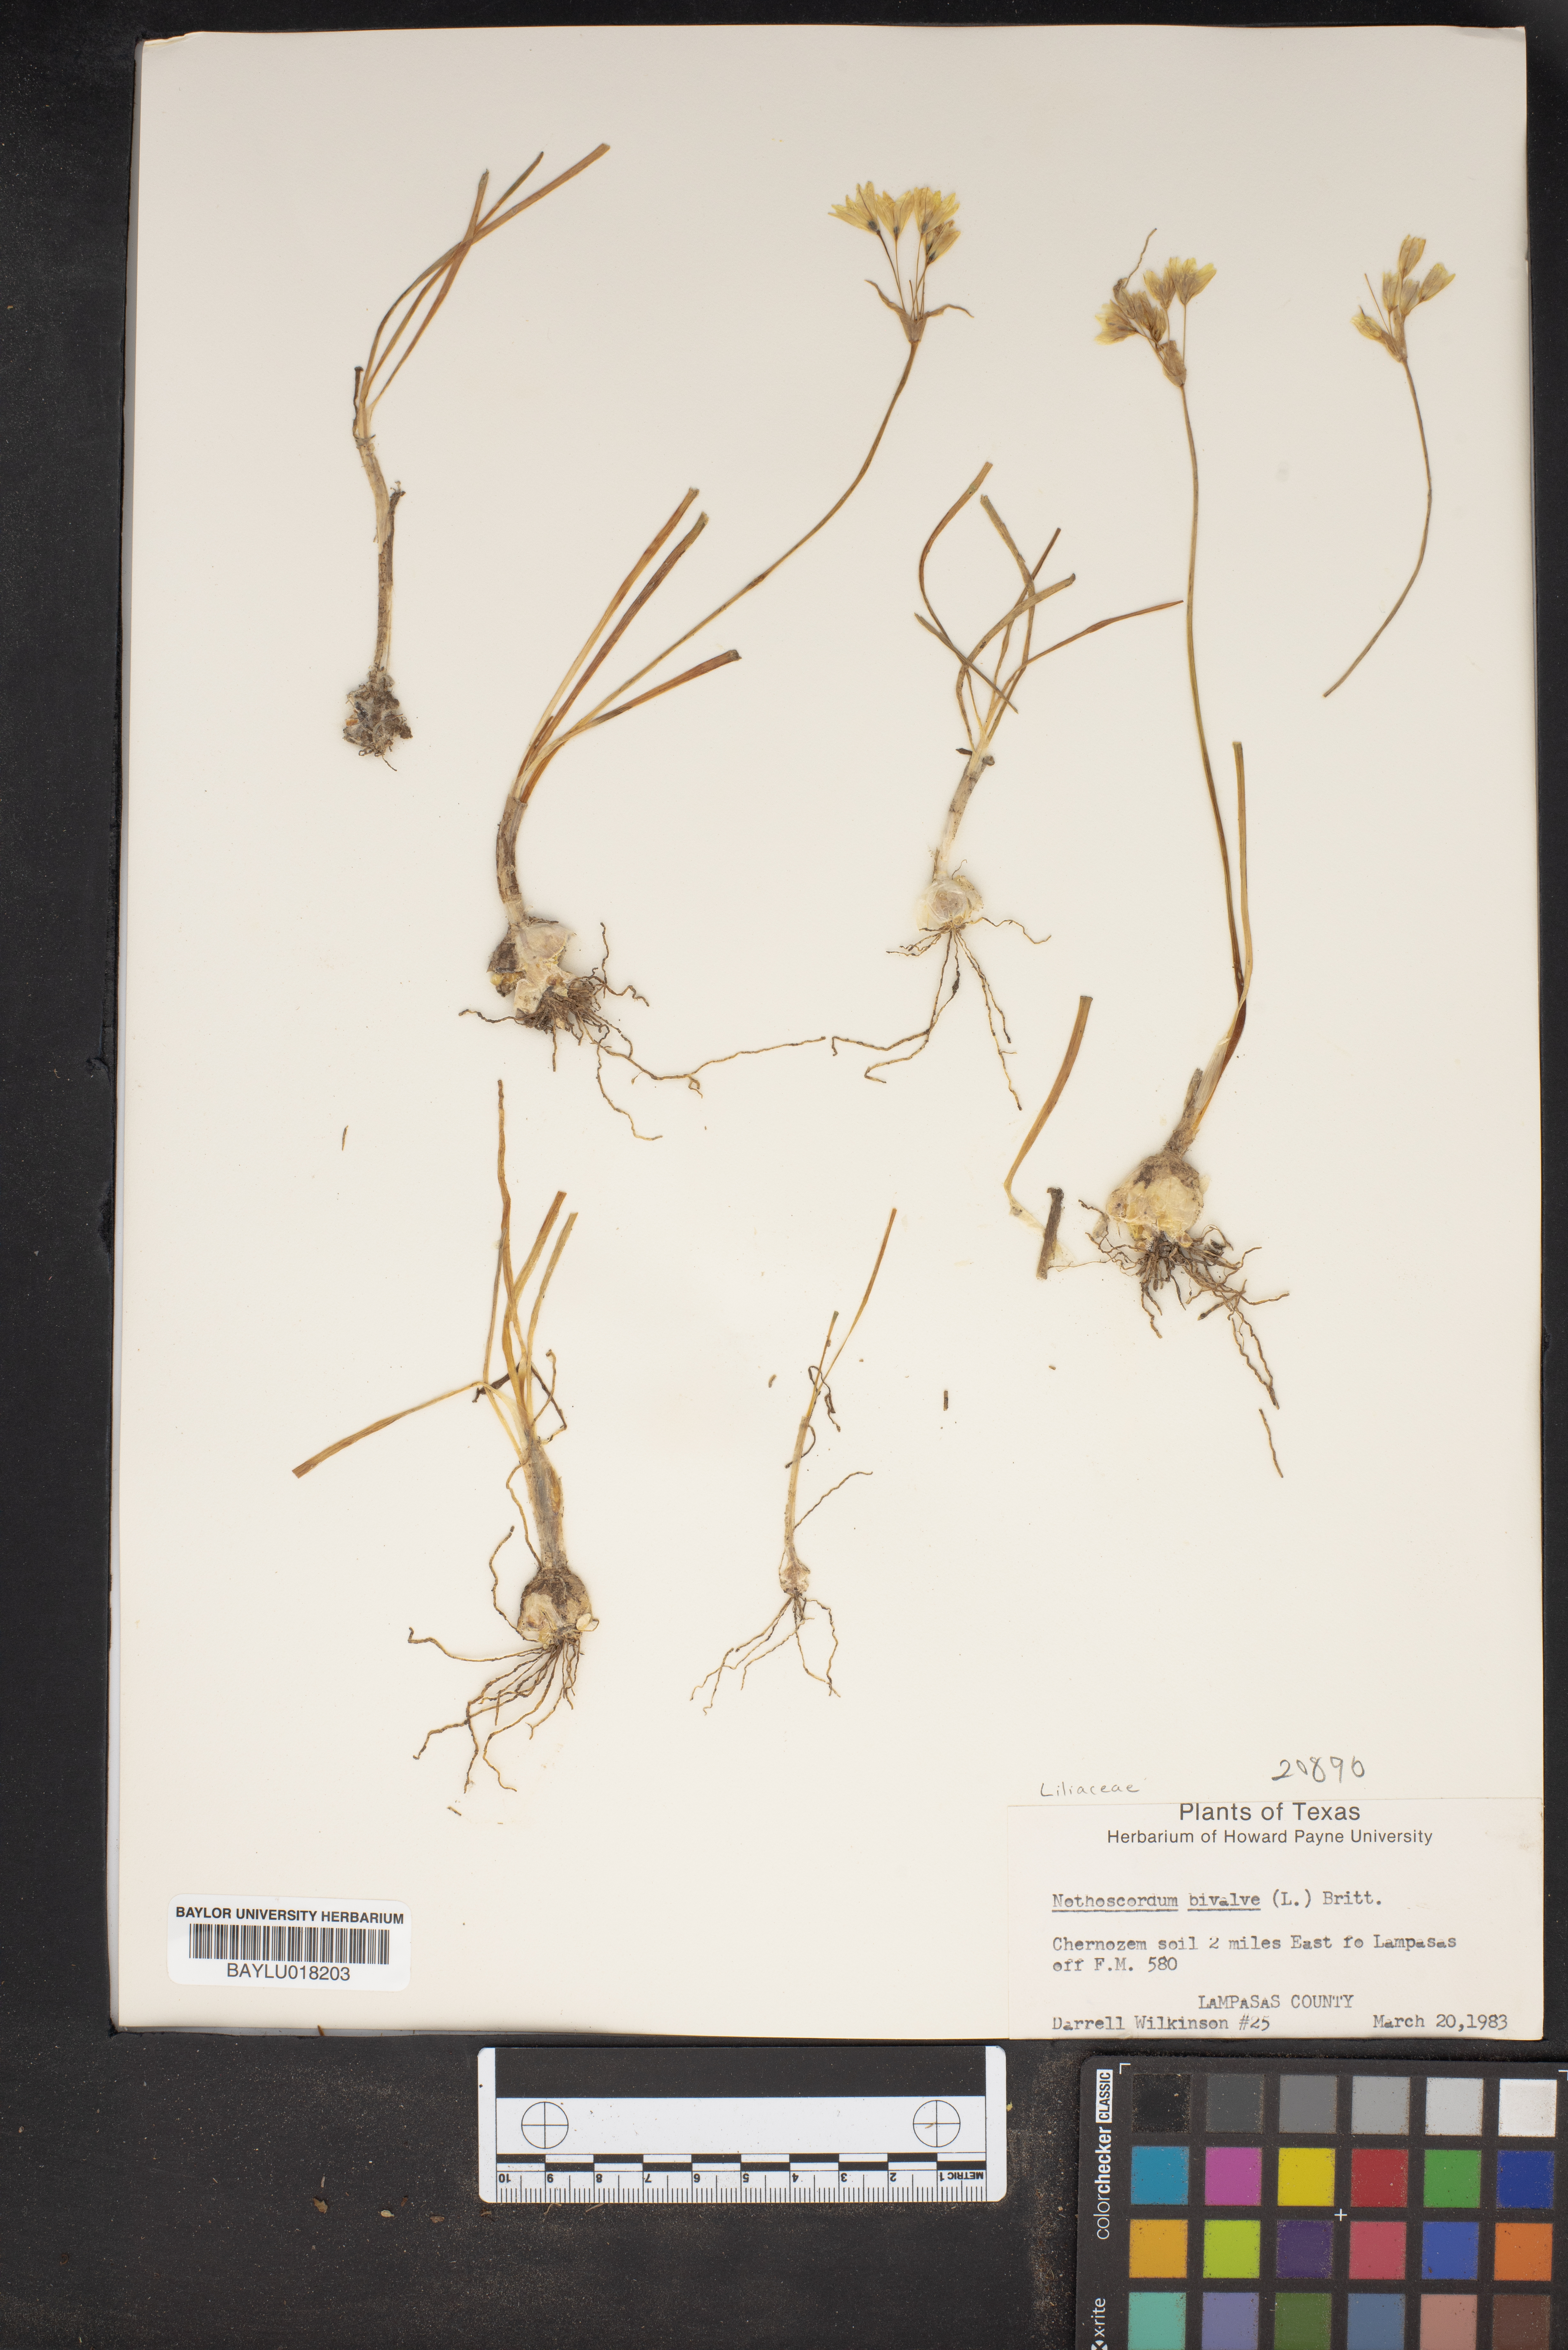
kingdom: Plantae
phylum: Tracheophyta
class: Liliopsida
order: Asparagales
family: Amaryllidaceae
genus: Nothoscordum
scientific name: Nothoscordum bivalve
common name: Crow-poison
